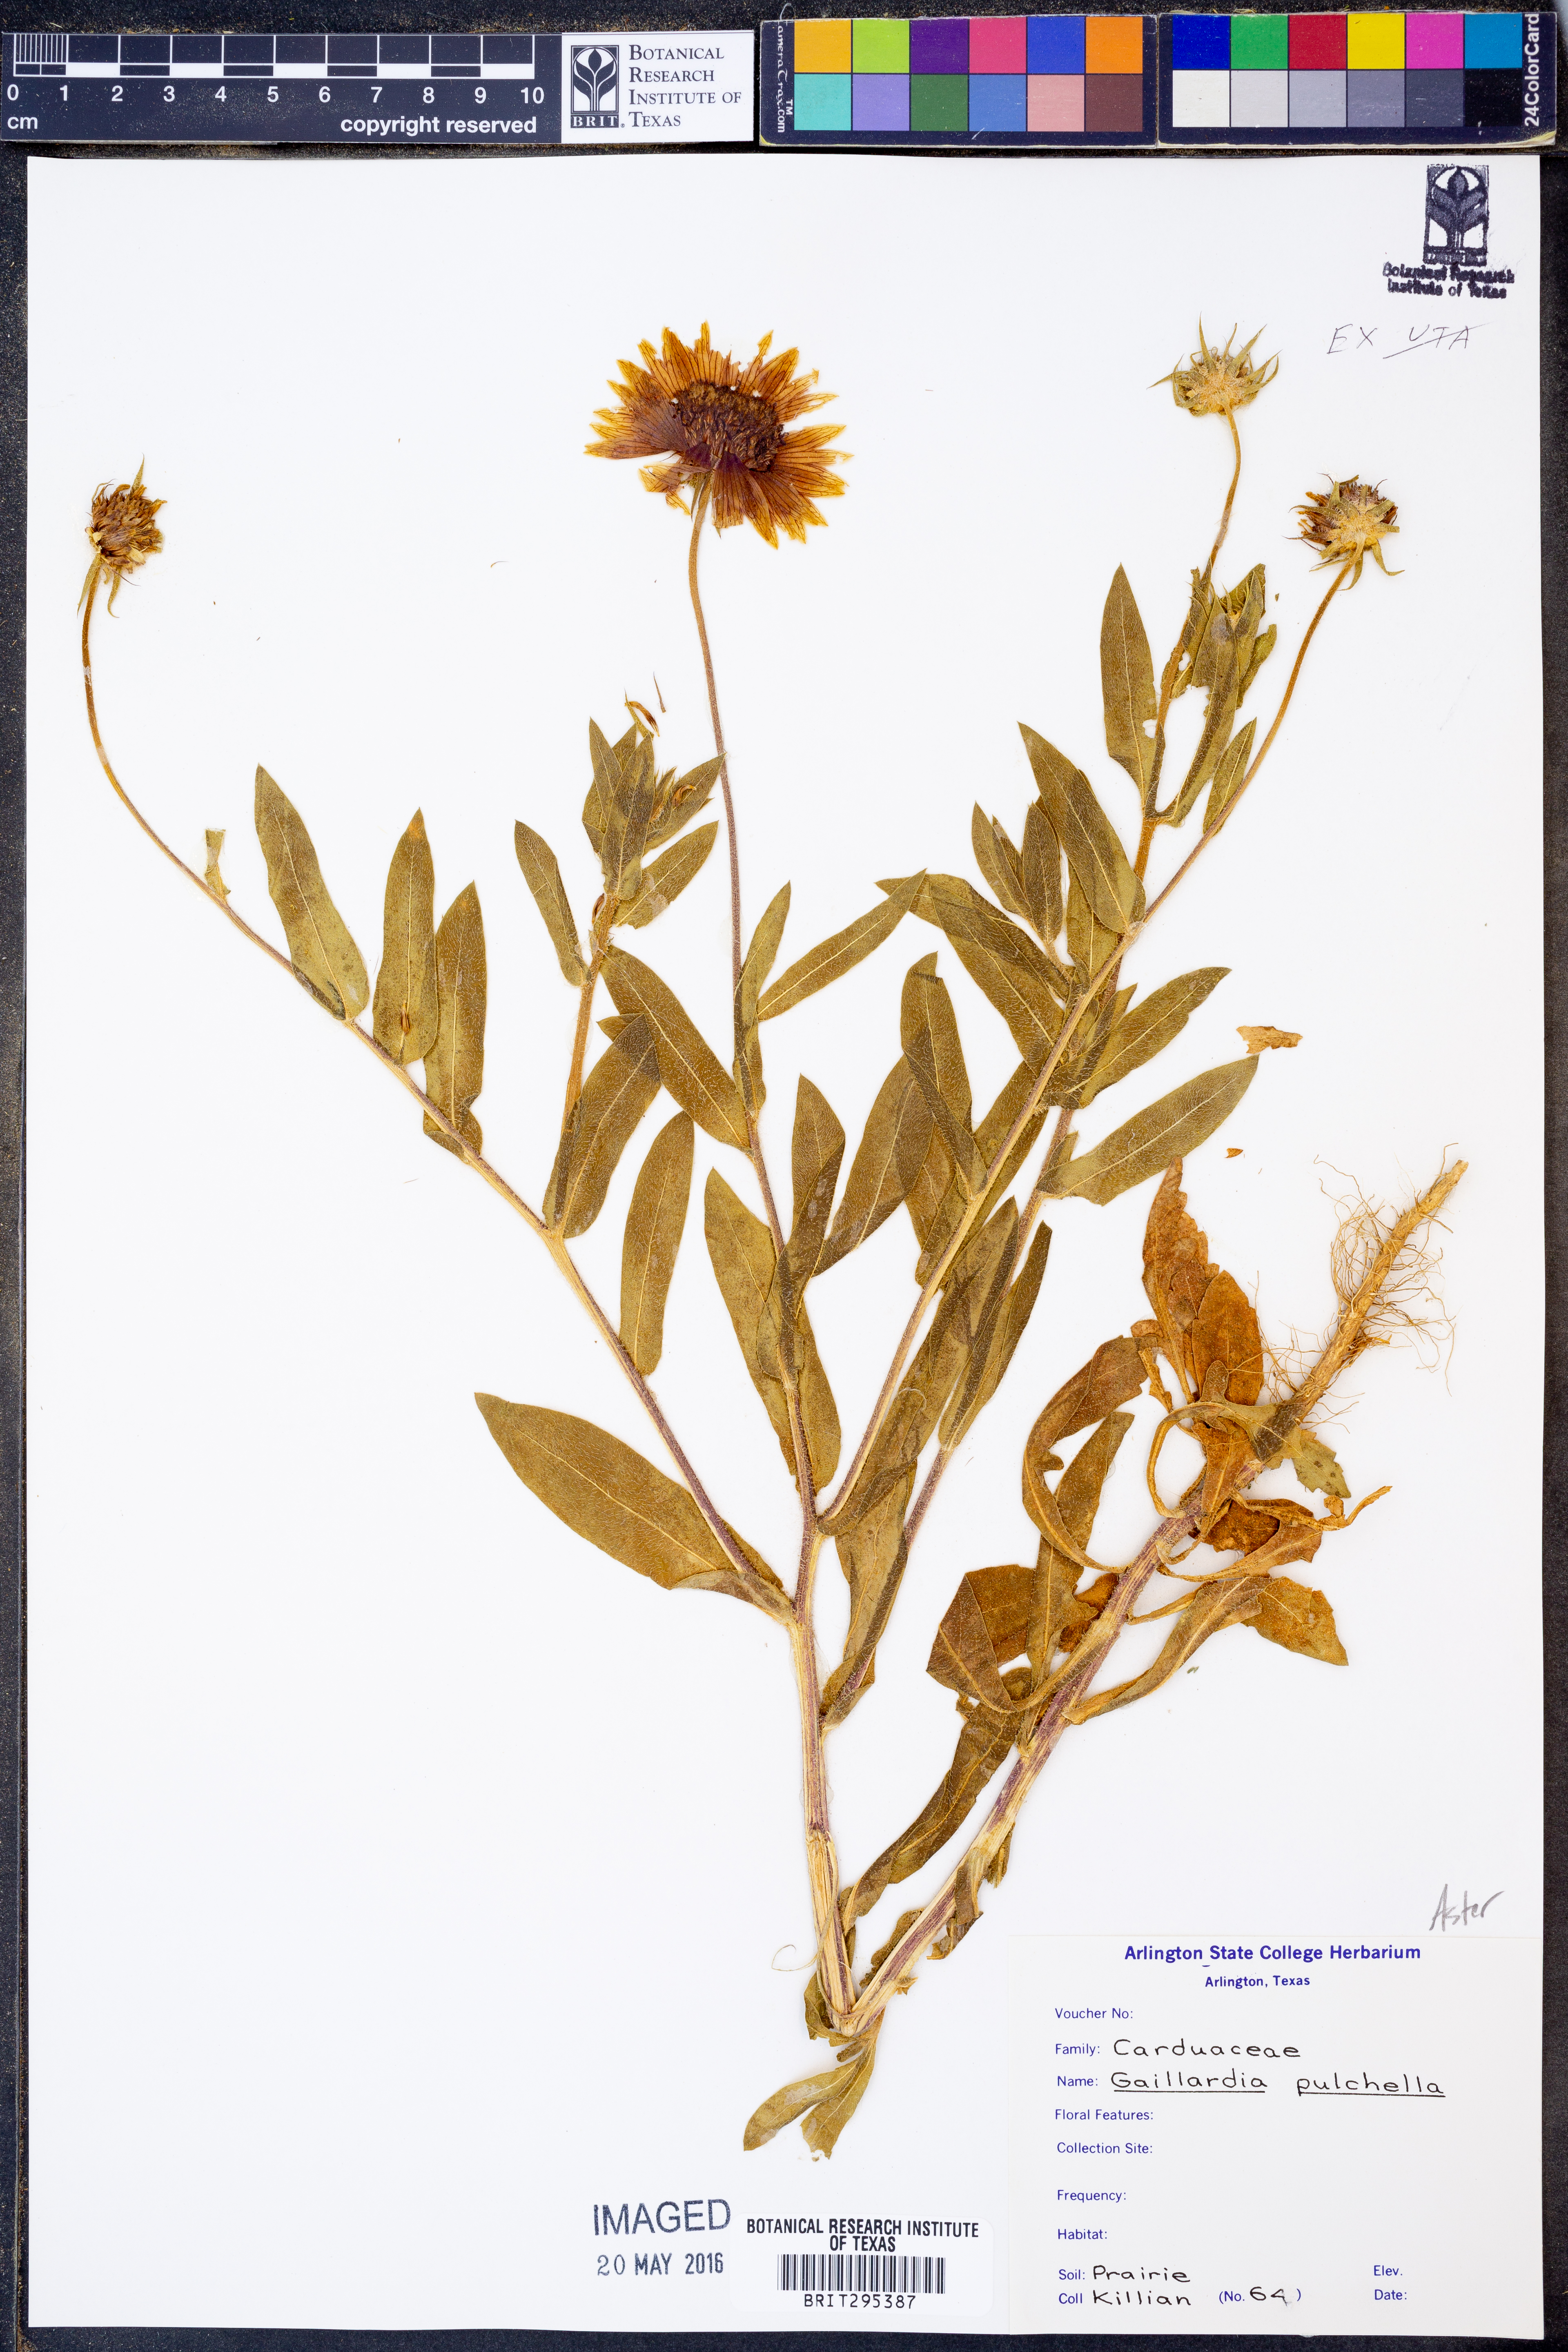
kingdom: Plantae
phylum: Tracheophyta
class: Magnoliopsida
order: Asterales
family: Asteraceae
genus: Gaillardia
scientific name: Gaillardia pulchella
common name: Firewheel
